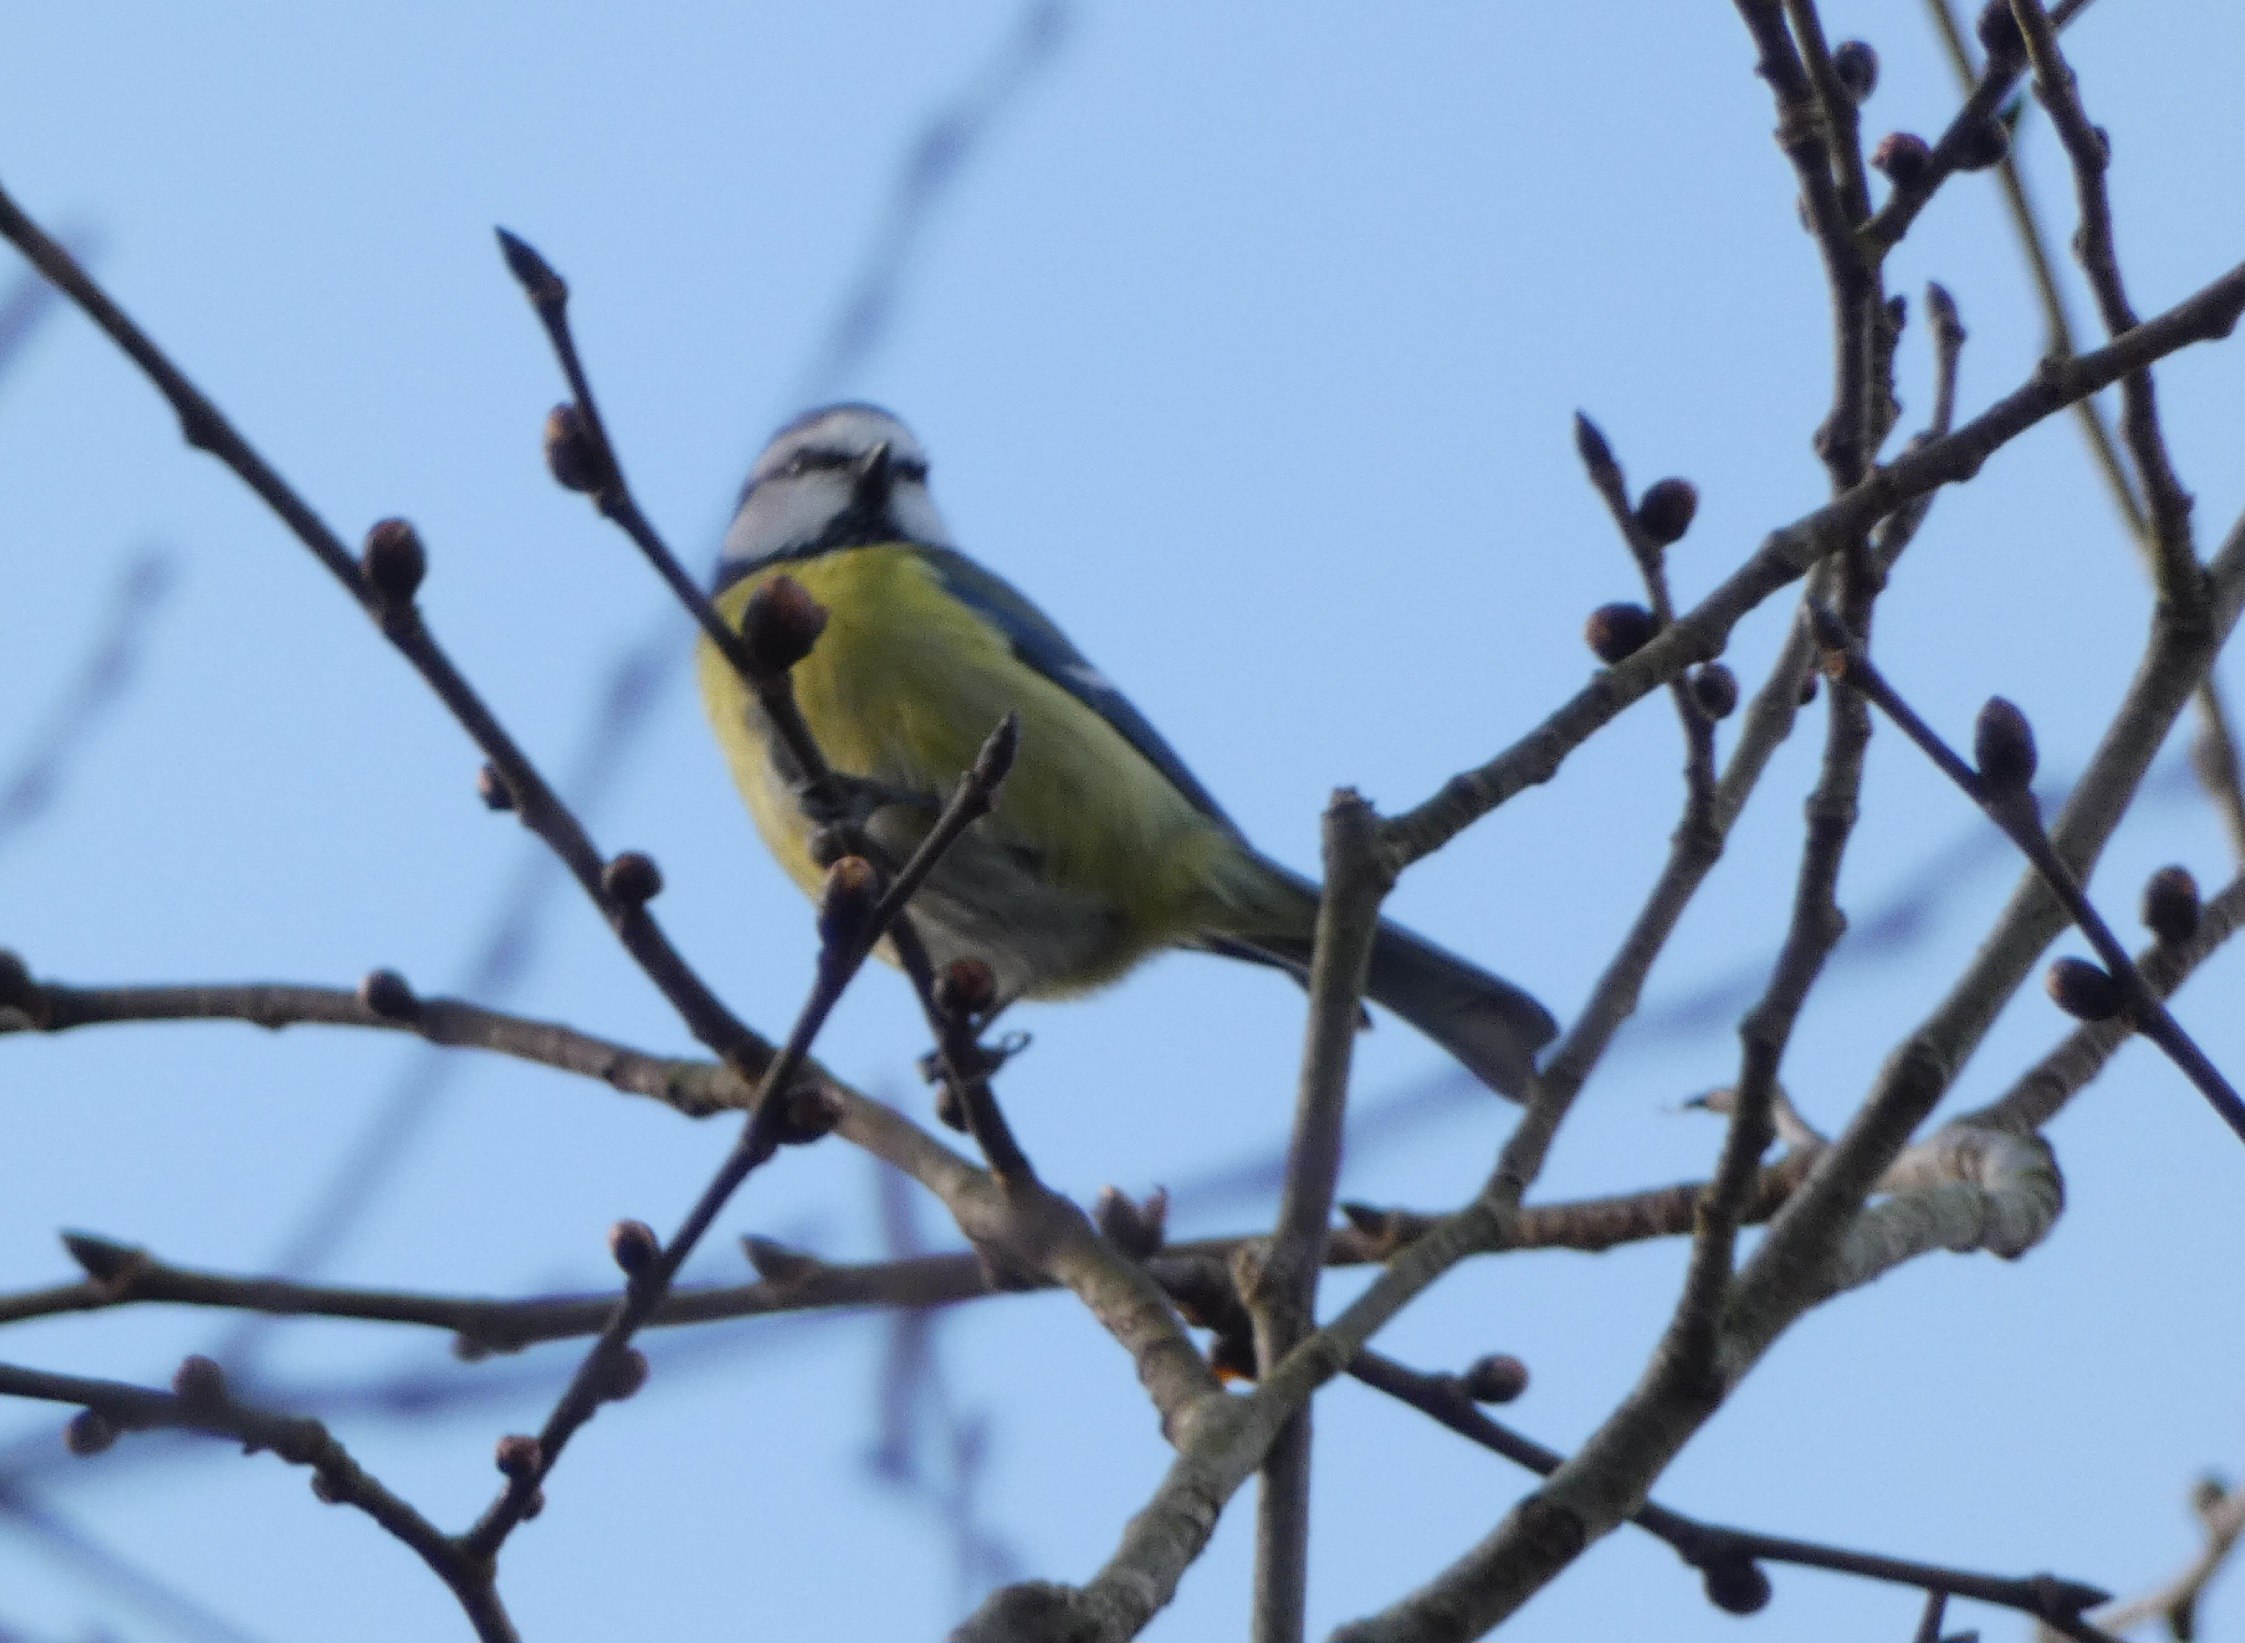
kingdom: Animalia
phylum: Chordata
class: Aves
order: Passeriformes
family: Paridae
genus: Cyanistes
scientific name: Cyanistes caeruleus
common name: Blåmejse
